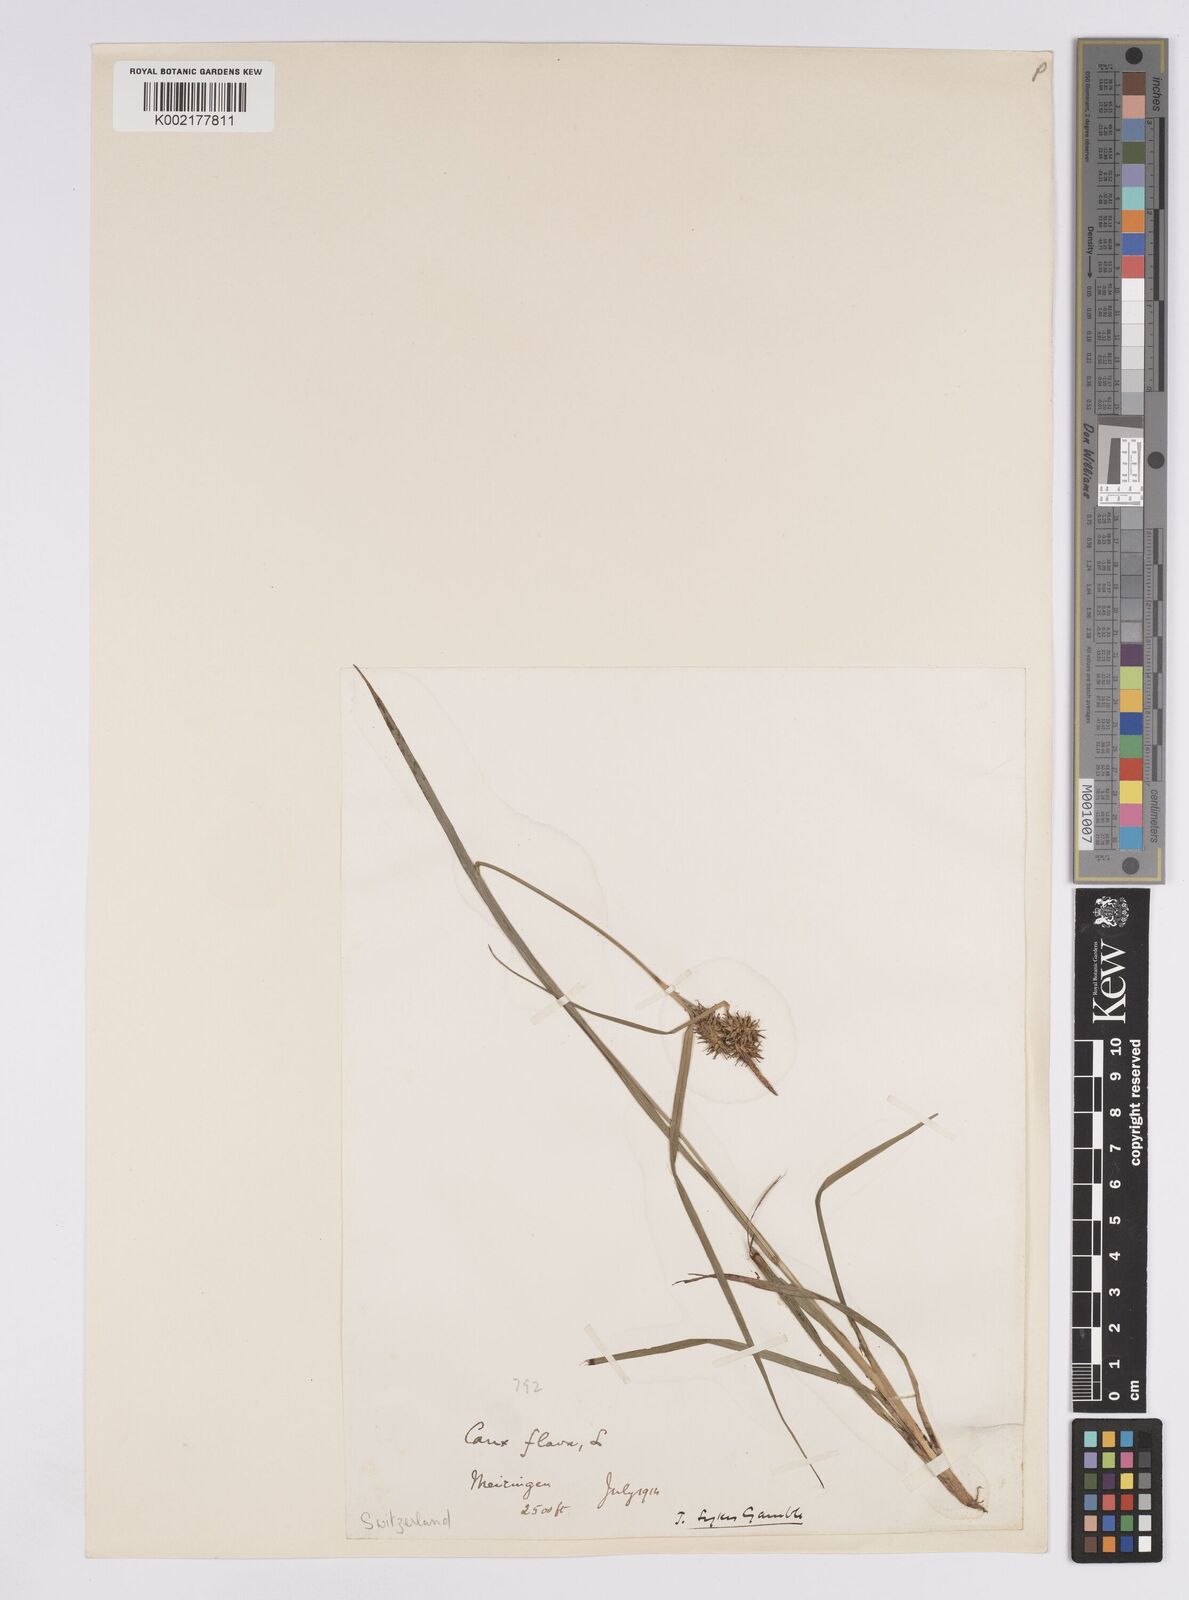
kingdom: Plantae
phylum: Tracheophyta
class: Liliopsida
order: Poales
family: Cyperaceae
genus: Carex
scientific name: Carex flava
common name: Large yellow-sedge
